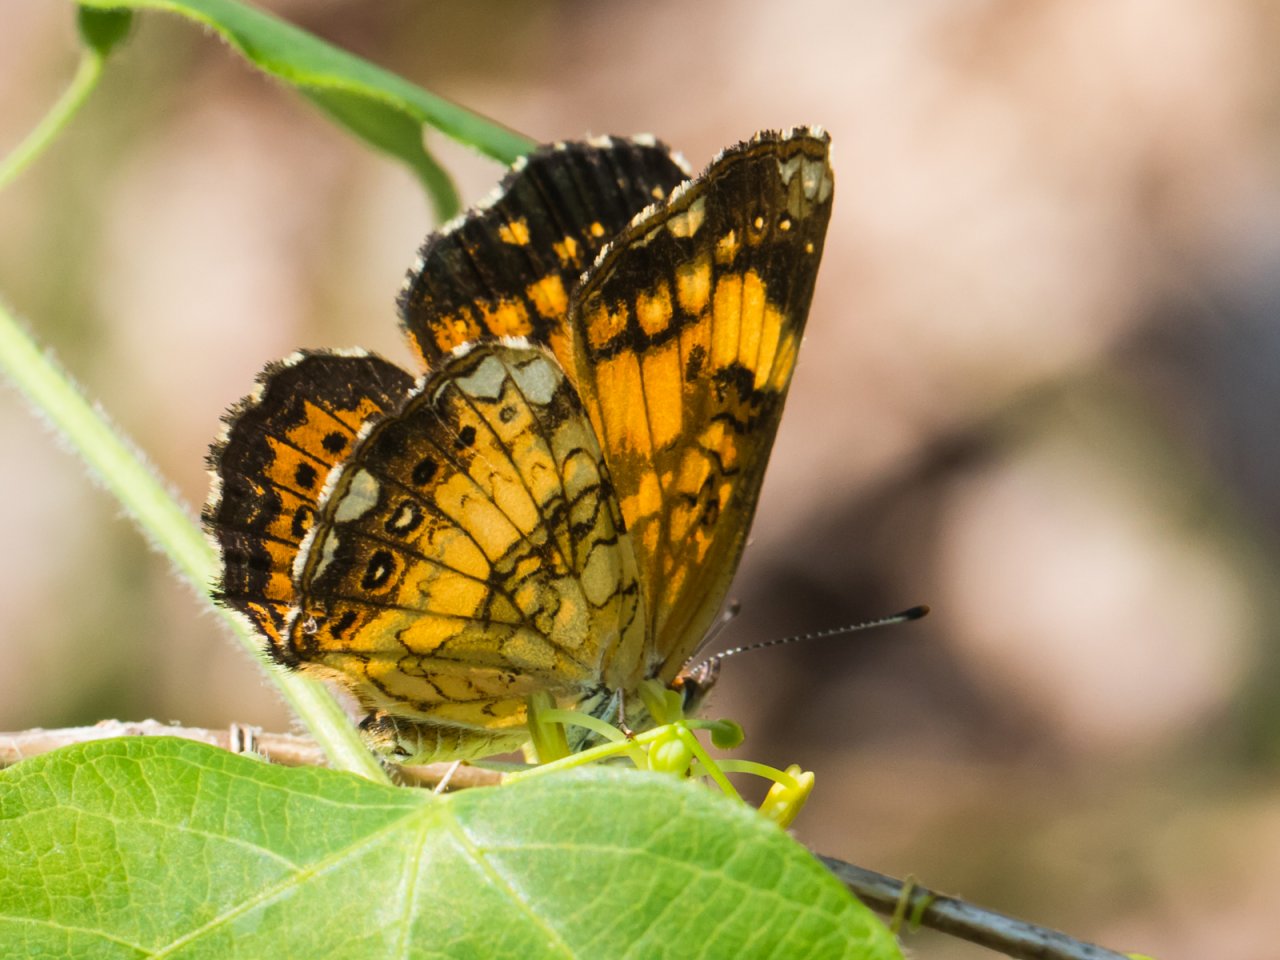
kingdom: Animalia
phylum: Arthropoda
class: Insecta
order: Lepidoptera
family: Nymphalidae
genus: Chlosyne
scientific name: Chlosyne nycteis
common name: Silvery Checkerspot
